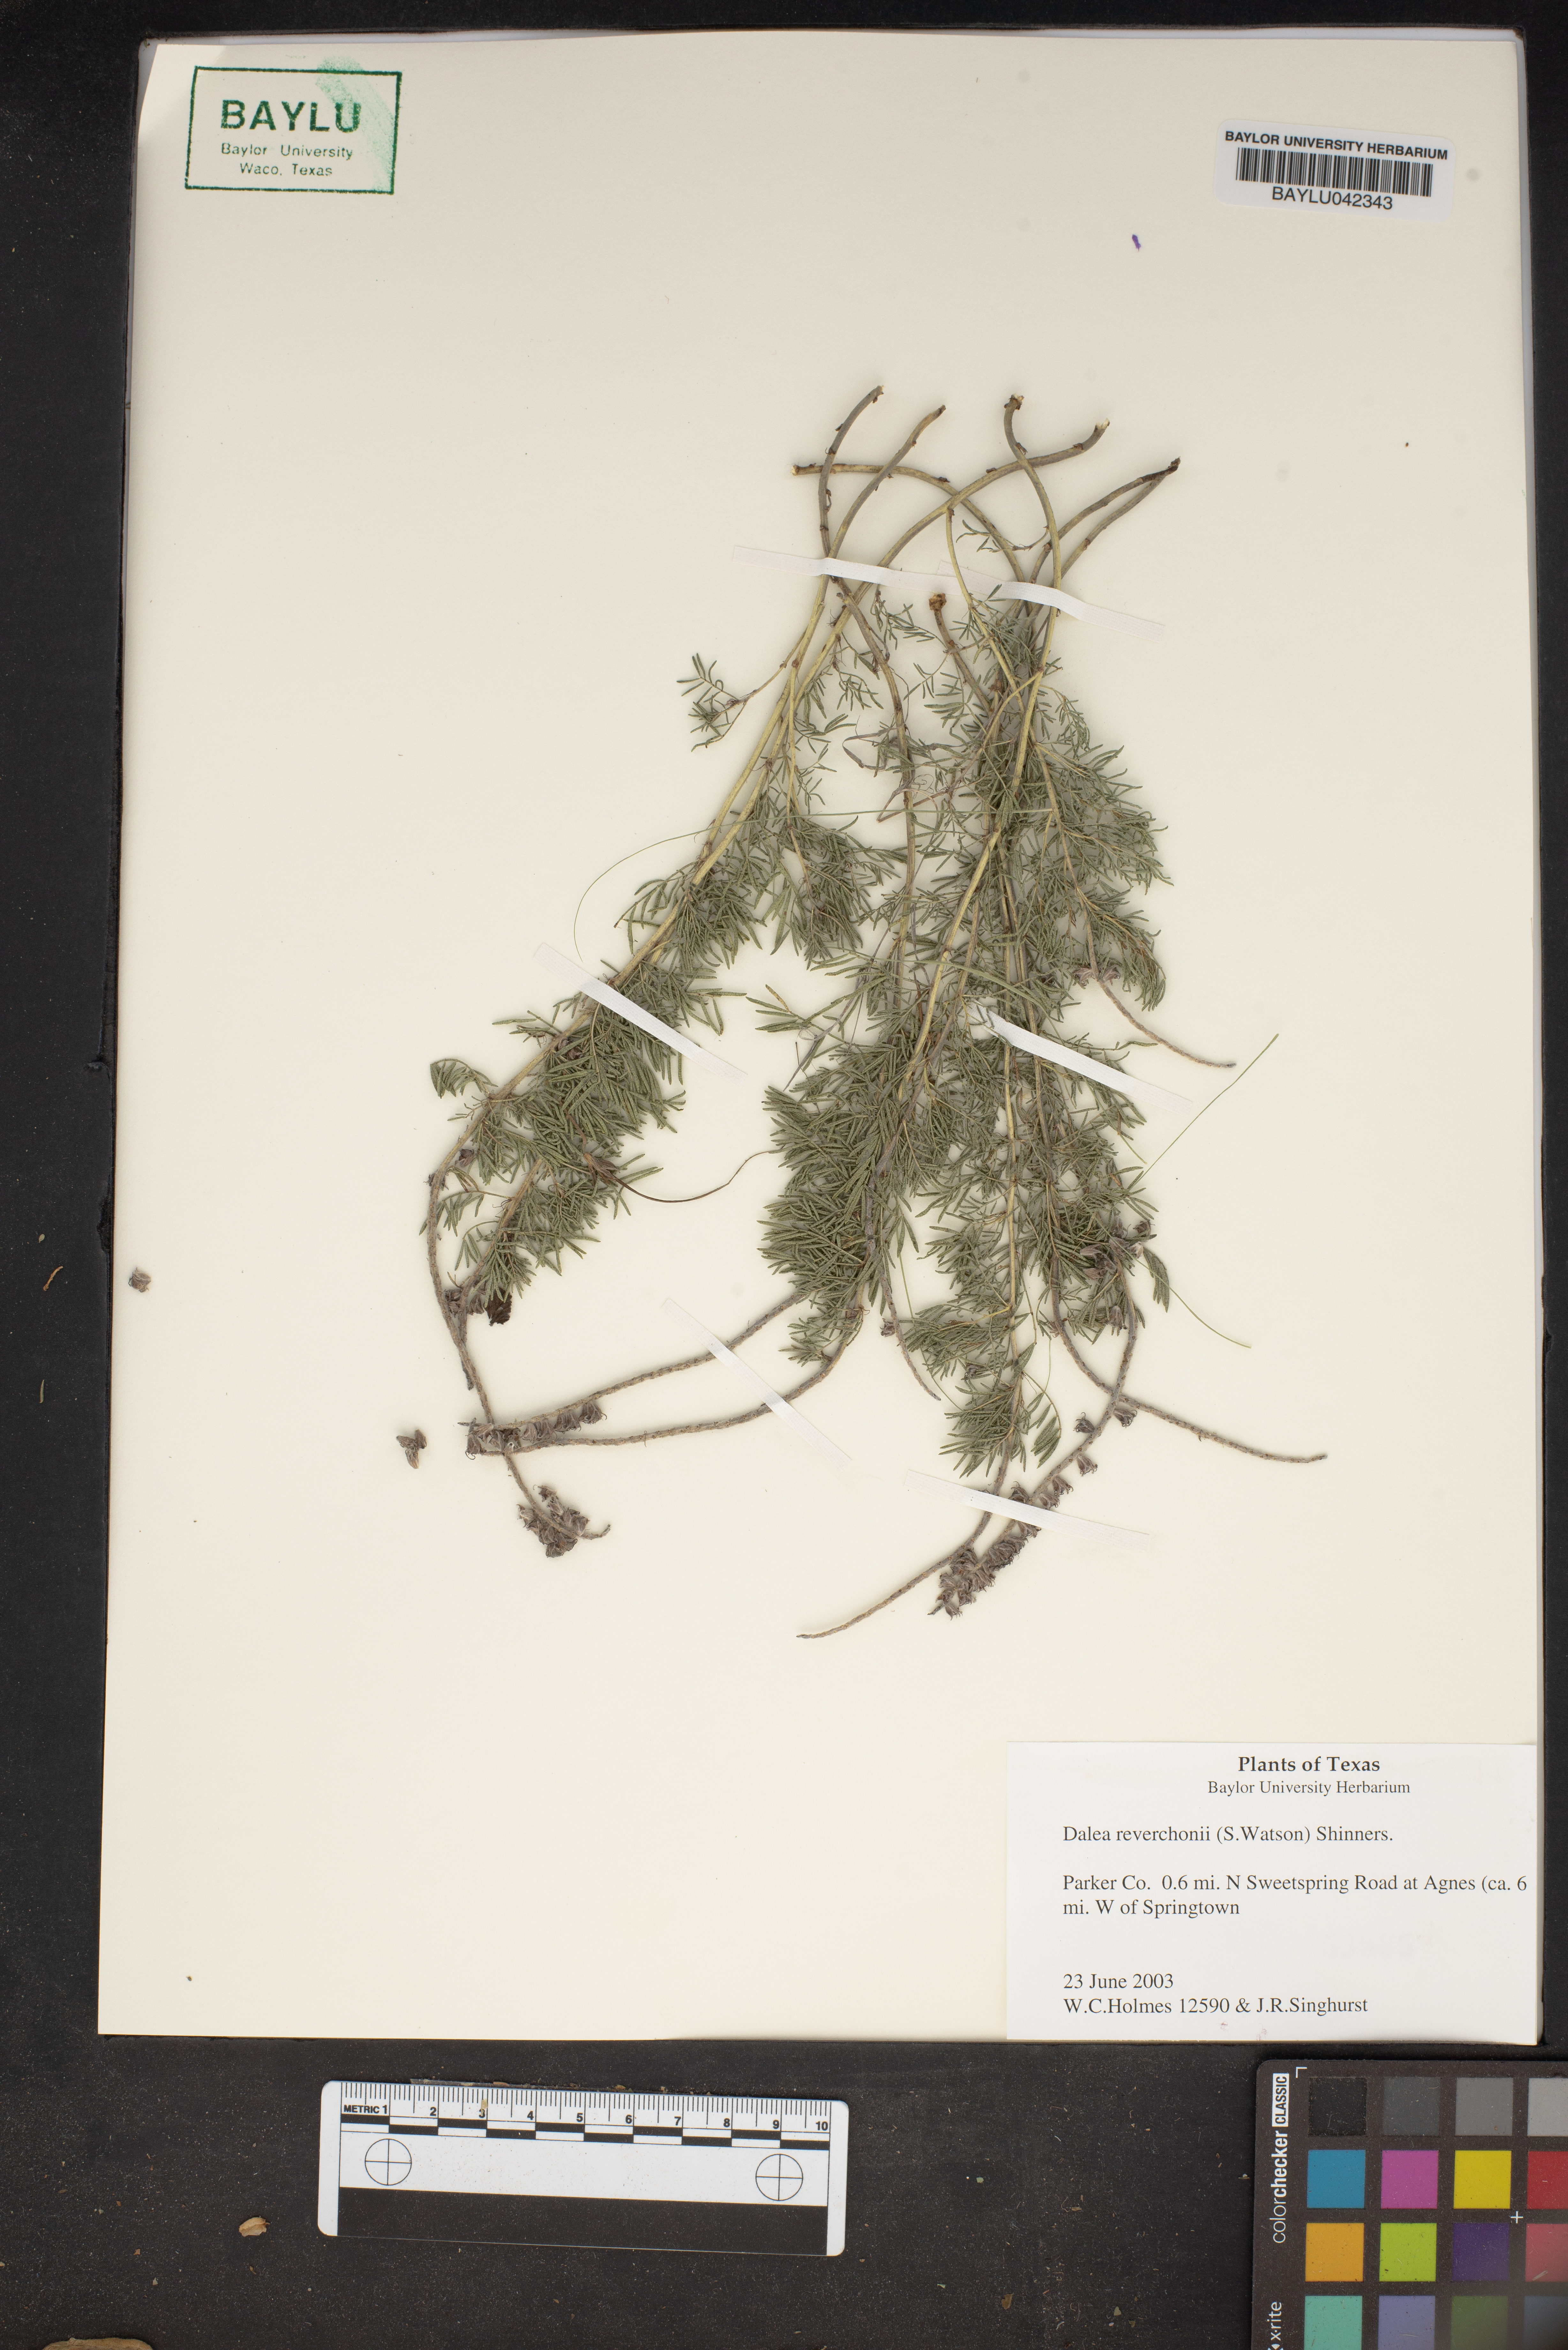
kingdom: Plantae
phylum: Tracheophyta
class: Magnoliopsida
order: Fabales
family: Fabaceae
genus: Dalea
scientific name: Dalea reverchonii
